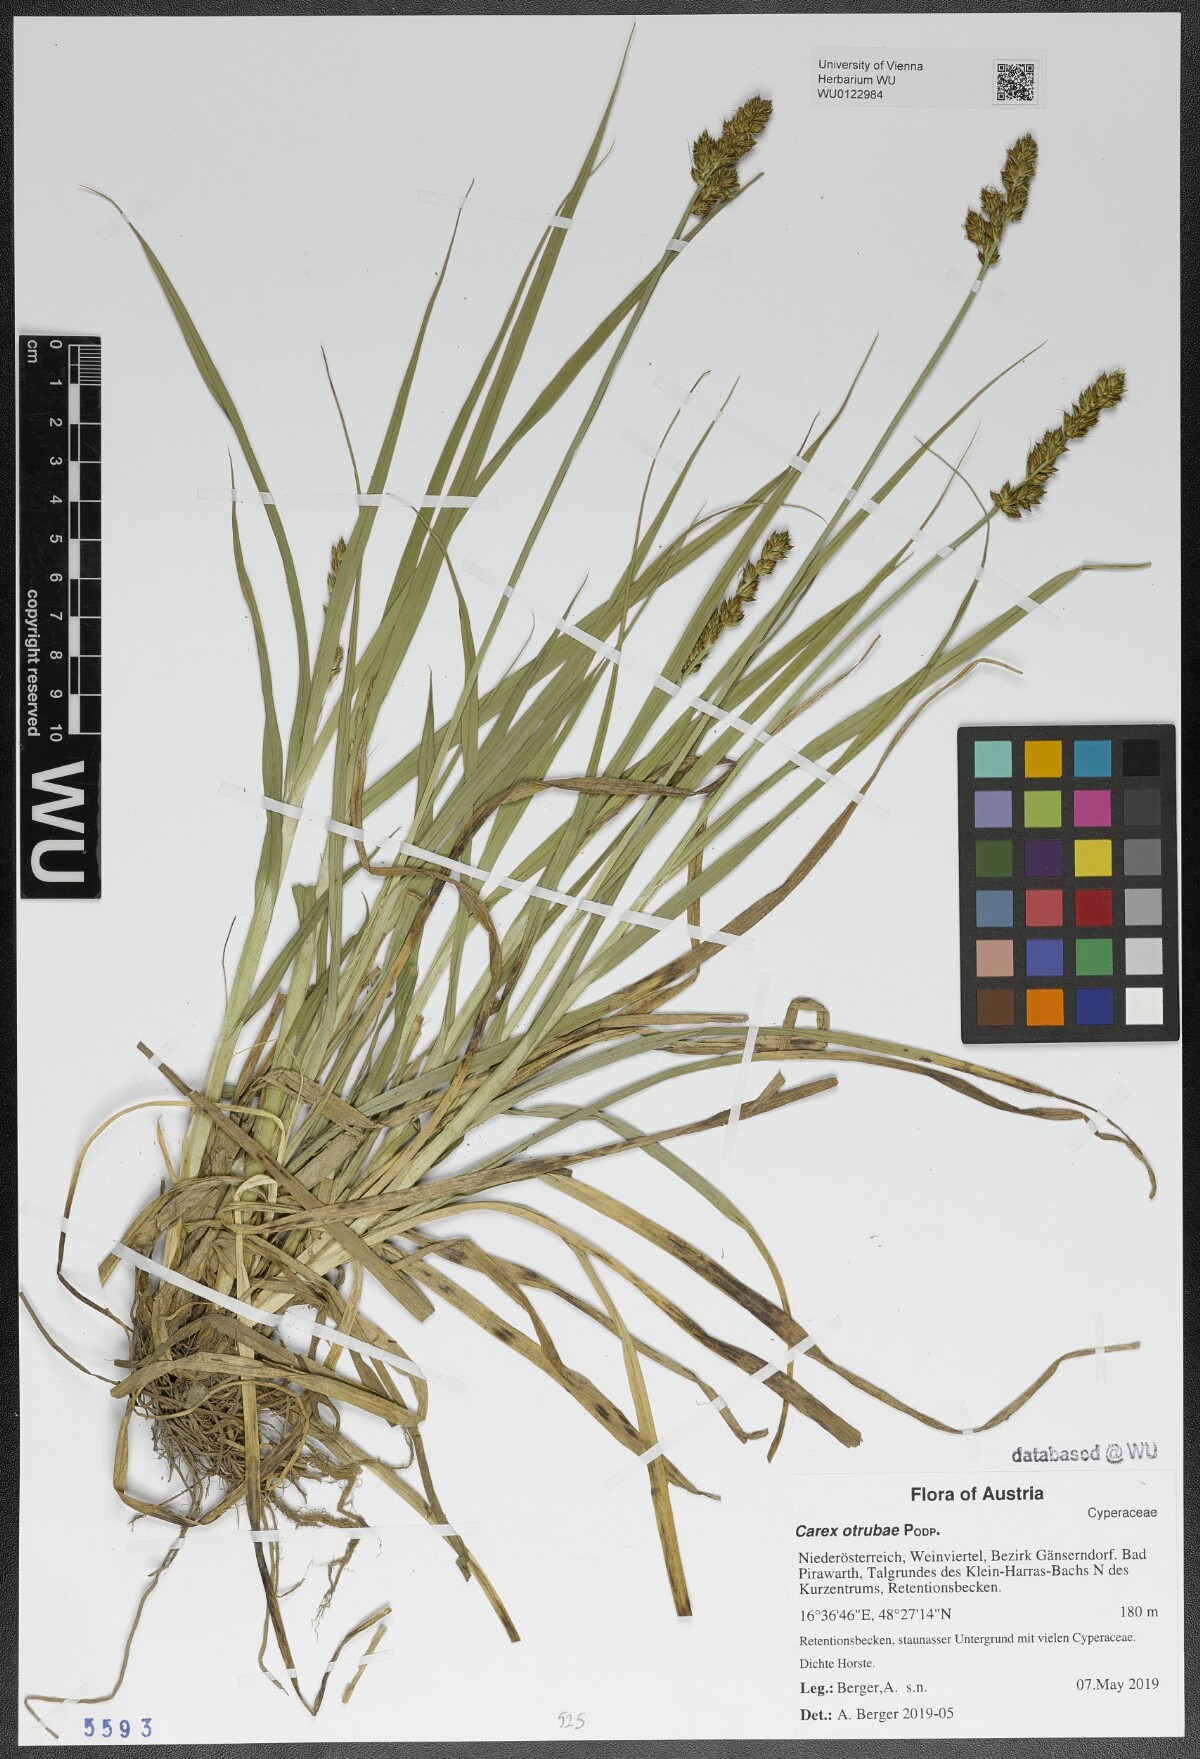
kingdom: Plantae
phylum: Tracheophyta
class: Liliopsida
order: Poales
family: Cyperaceae
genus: Carex
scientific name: Carex otrubae
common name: False fox-sedge
